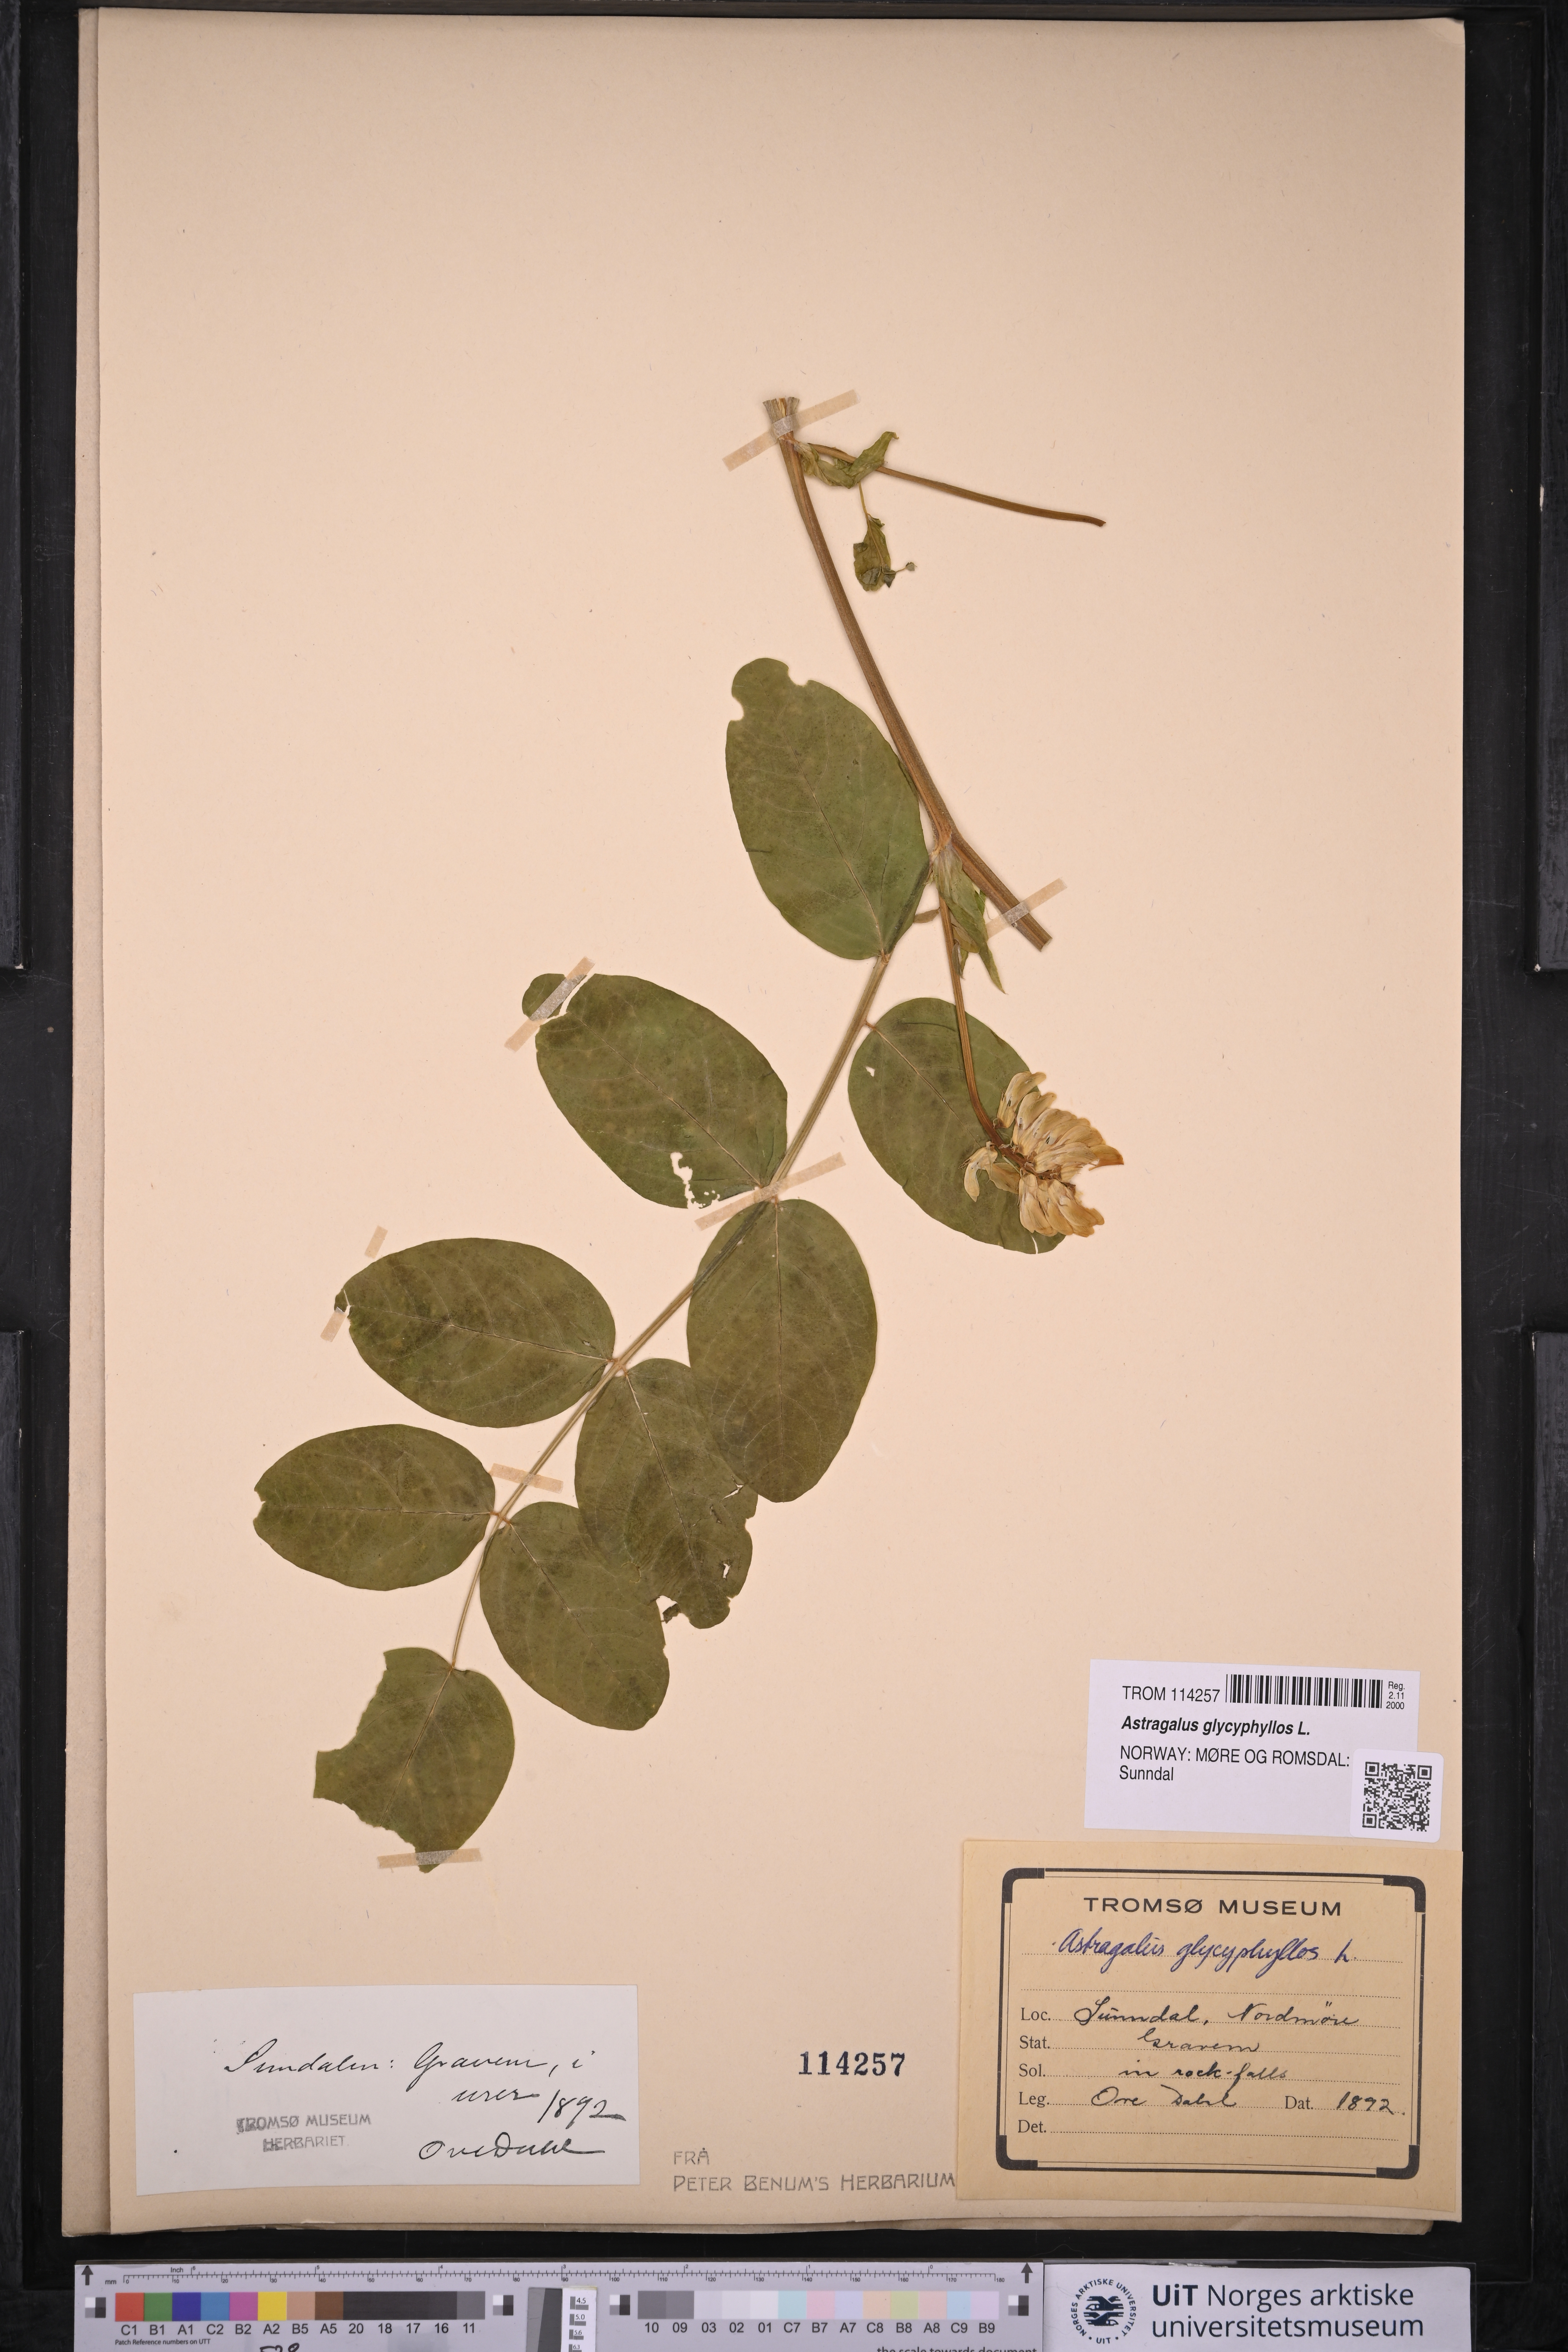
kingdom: Plantae
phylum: Tracheophyta
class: Magnoliopsida
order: Fabales
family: Fabaceae
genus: Astragalus
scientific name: Astragalus glycyphyllos
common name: Wild liquorice
